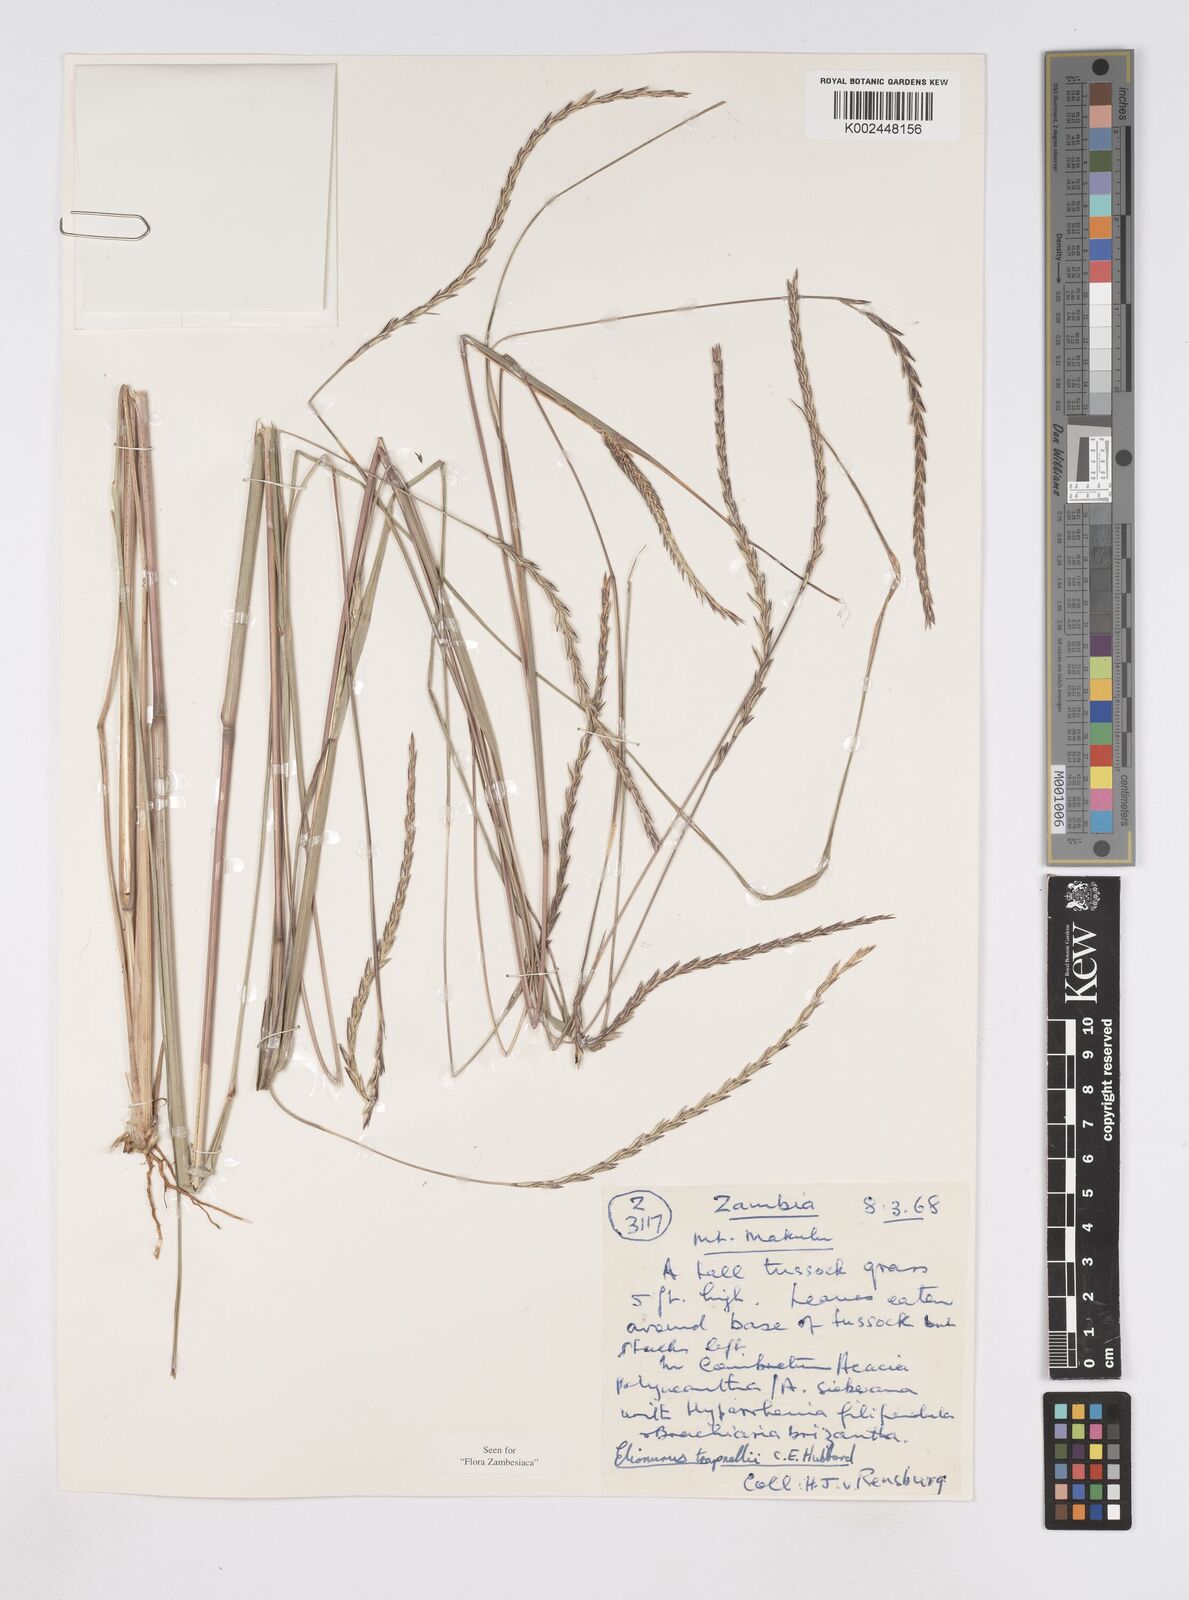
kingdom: Plantae
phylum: Tracheophyta
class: Liliopsida
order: Poales
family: Poaceae
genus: Elionurus
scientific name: Elionurus tripsacoides
